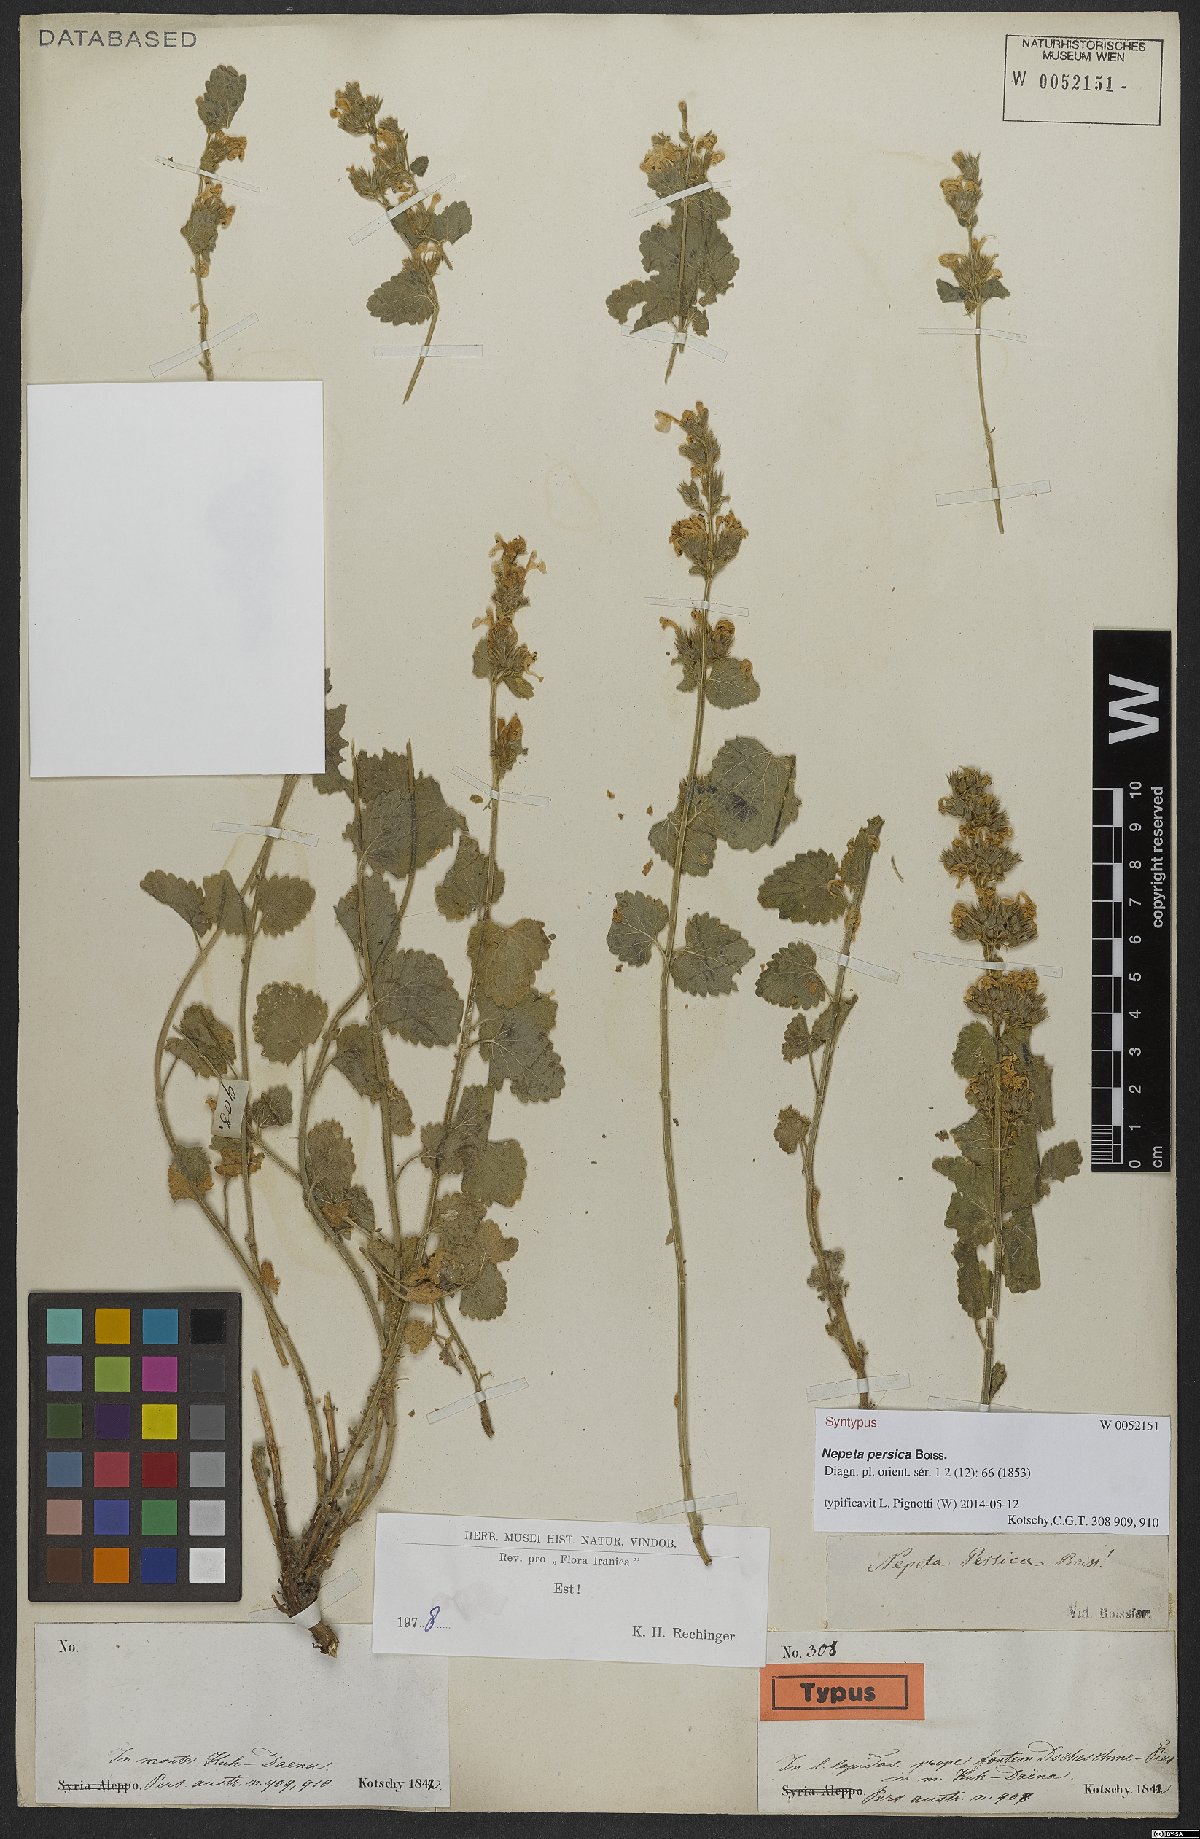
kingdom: Plantae
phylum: Tracheophyta
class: Magnoliopsida
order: Lamiales
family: Lamiaceae
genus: Nepeta
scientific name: Nepeta persica
